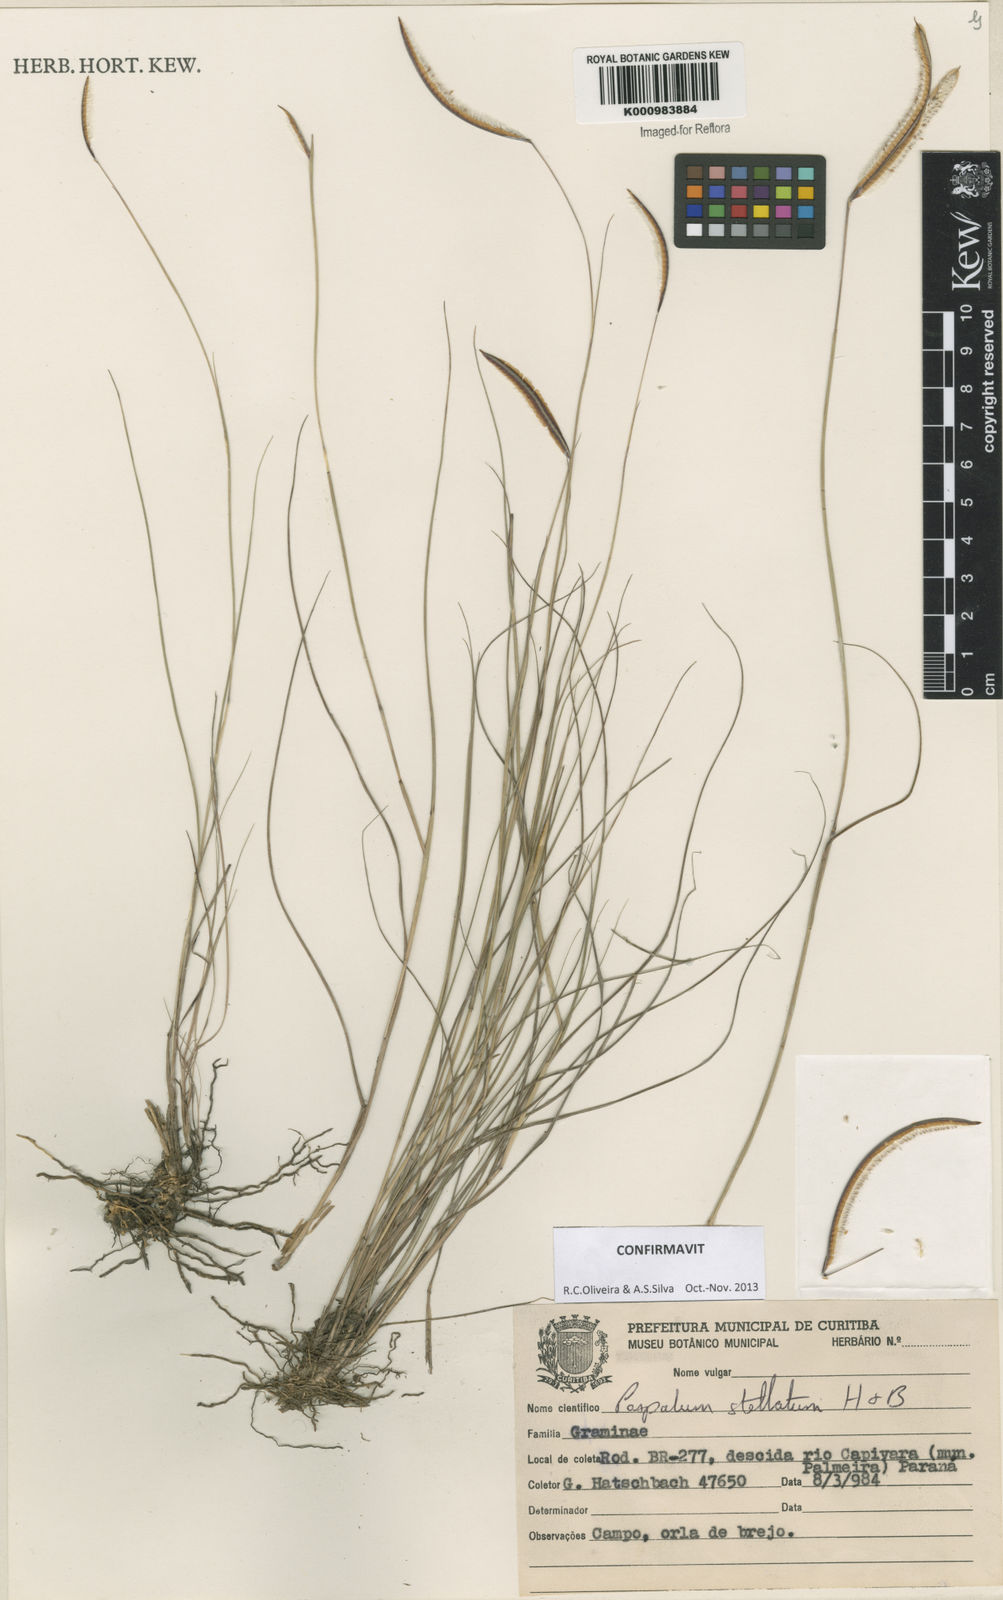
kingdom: Plantae
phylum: Tracheophyta
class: Liliopsida
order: Poales
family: Poaceae
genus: Paspalum
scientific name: Paspalum
